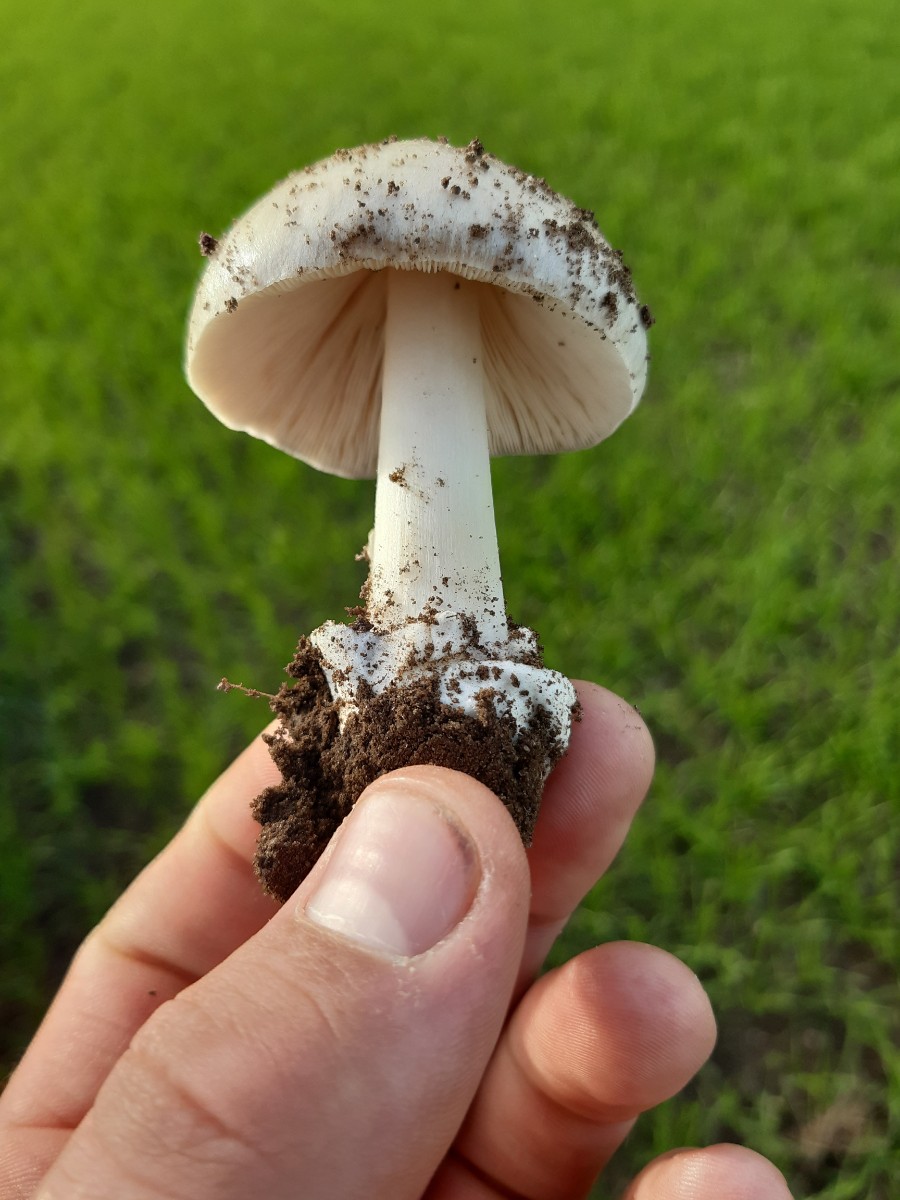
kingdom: Fungi
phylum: Basidiomycota
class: Agaricomycetes
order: Agaricales
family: Pluteaceae
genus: Volvopluteus
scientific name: Volvopluteus gloiocephalus
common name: høj posesvamp
